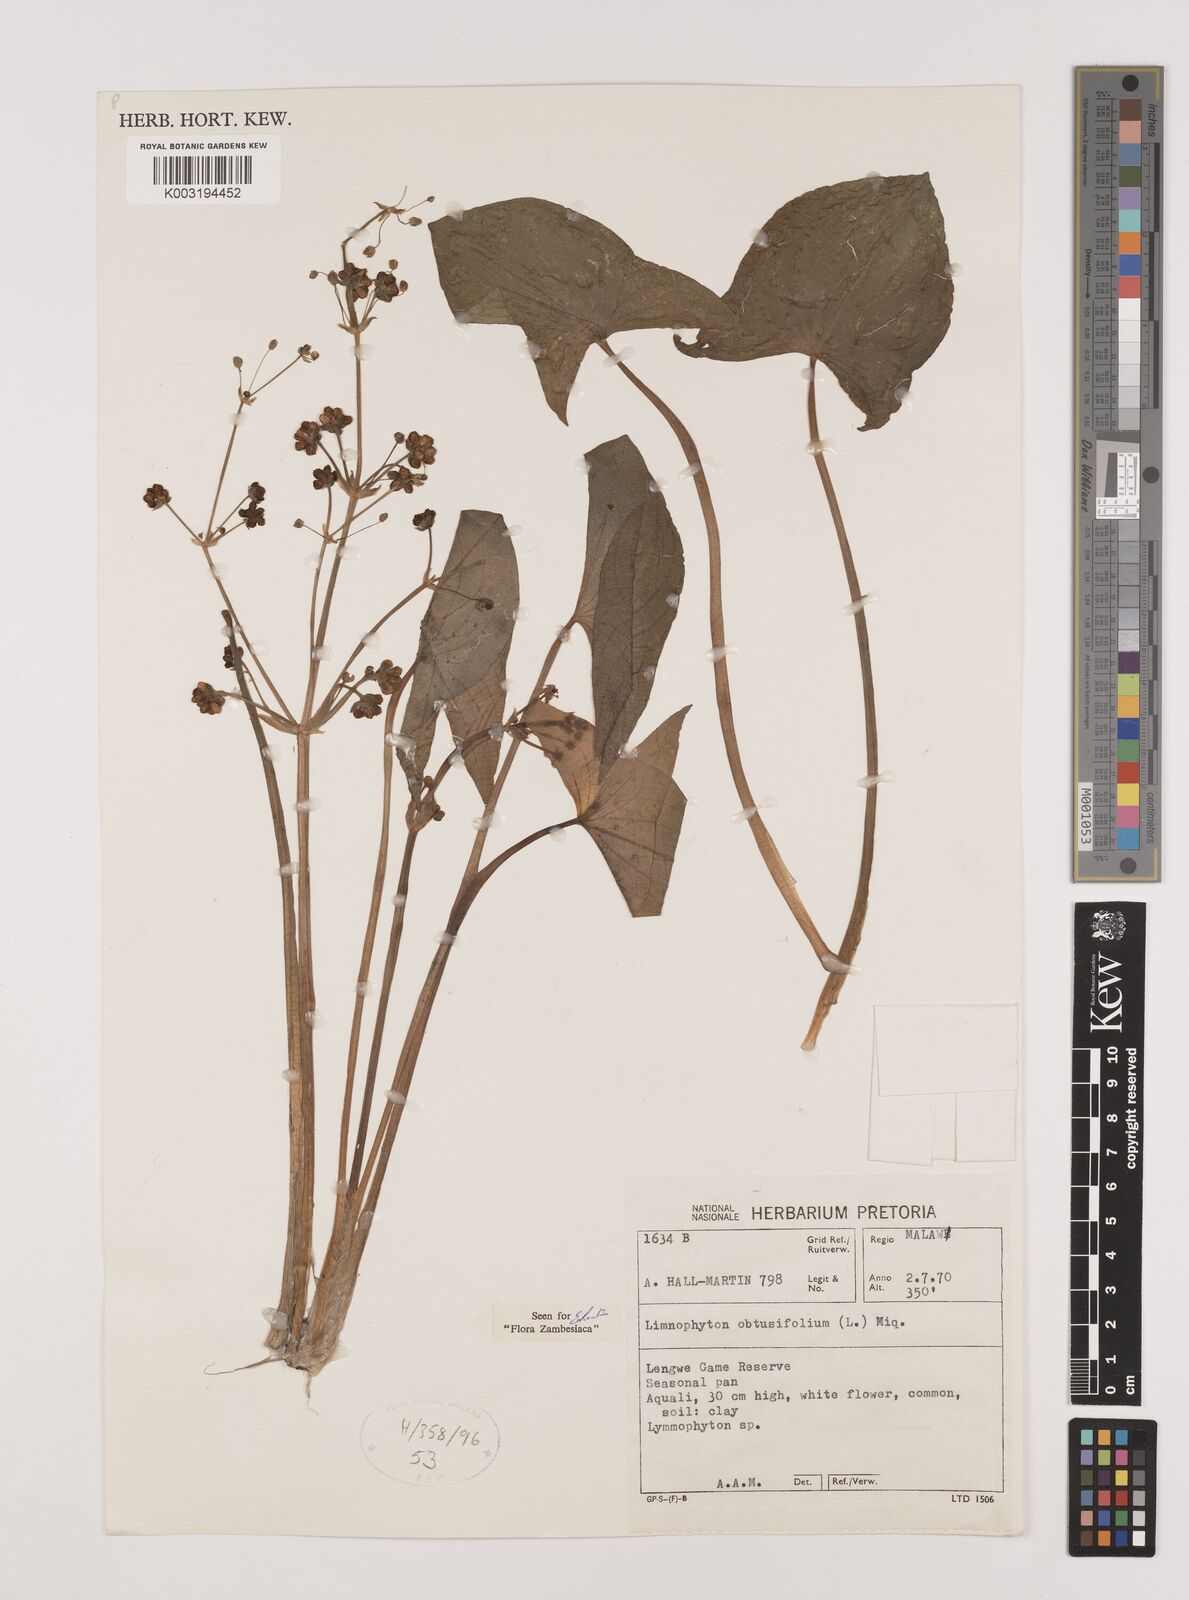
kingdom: Plantae
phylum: Tracheophyta
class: Liliopsida
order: Alismatales
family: Alismataceae
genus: Limnophyton
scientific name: Limnophyton obtusifolium
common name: Arrow head
